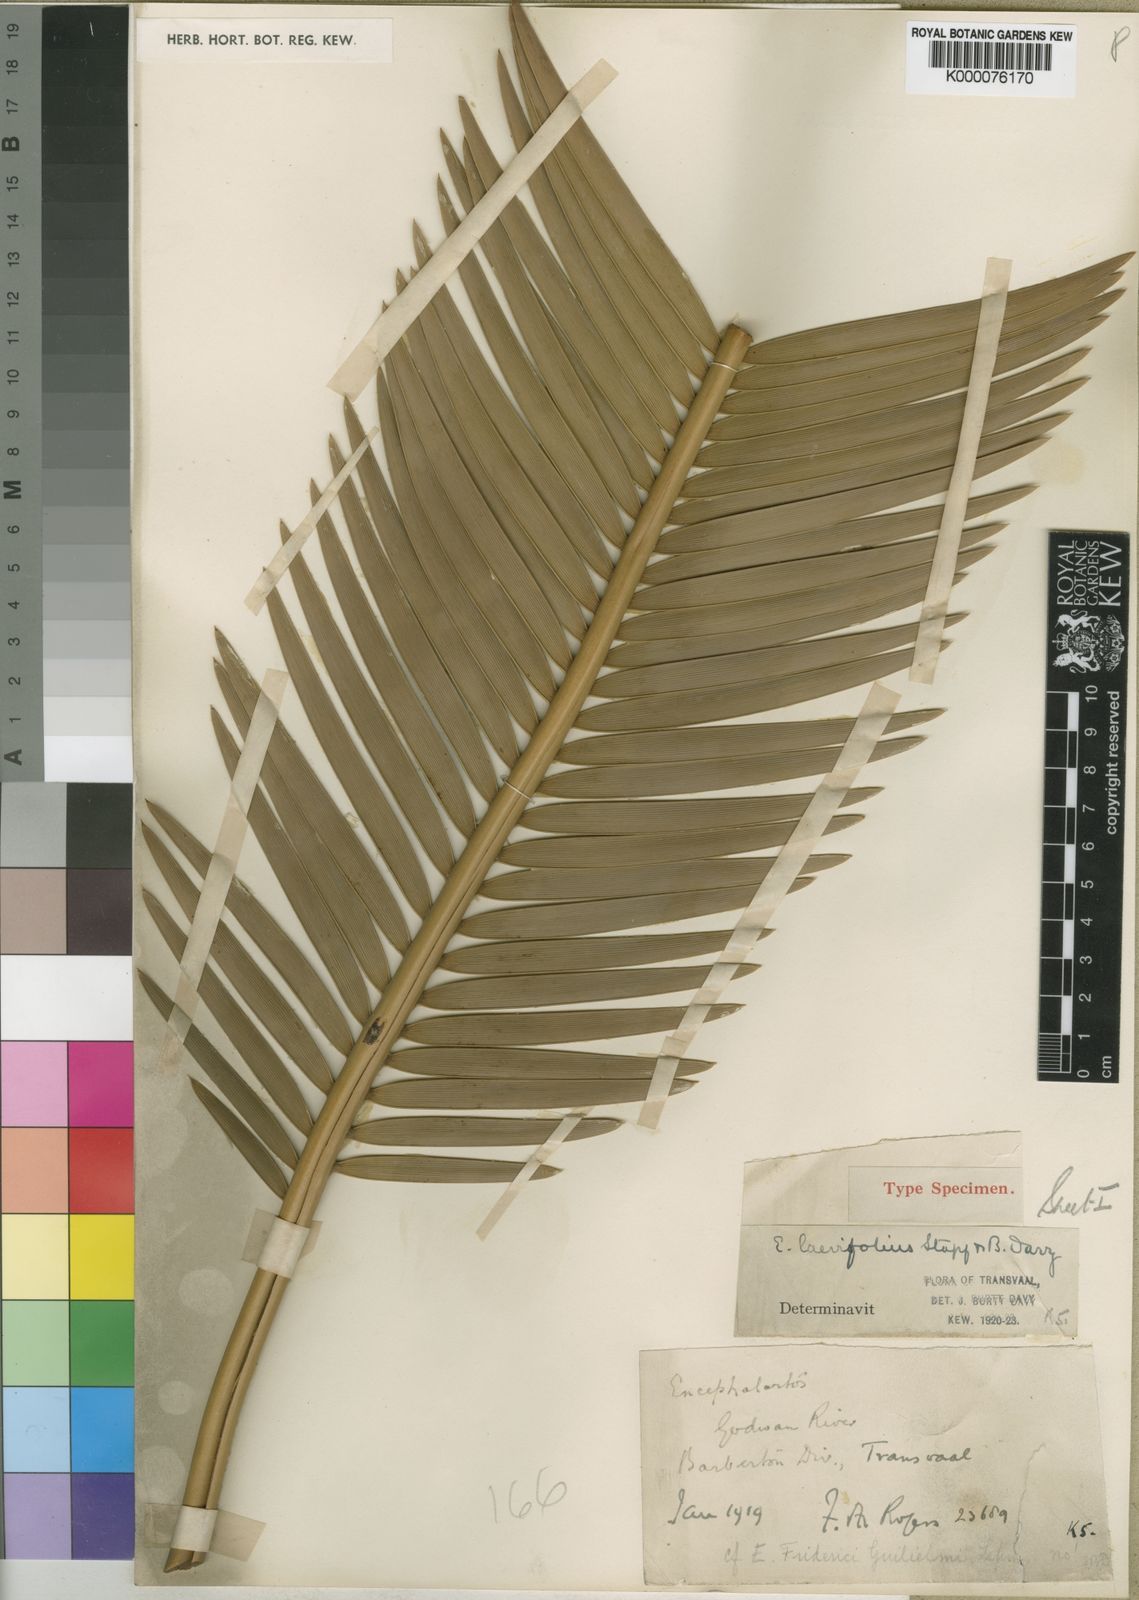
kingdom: Plantae
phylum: Tracheophyta
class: Cycadopsida
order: Cycadales
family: Zamiaceae
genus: Encephalartos
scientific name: Encephalartos laevifolius
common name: Kaapsehoop cycad
